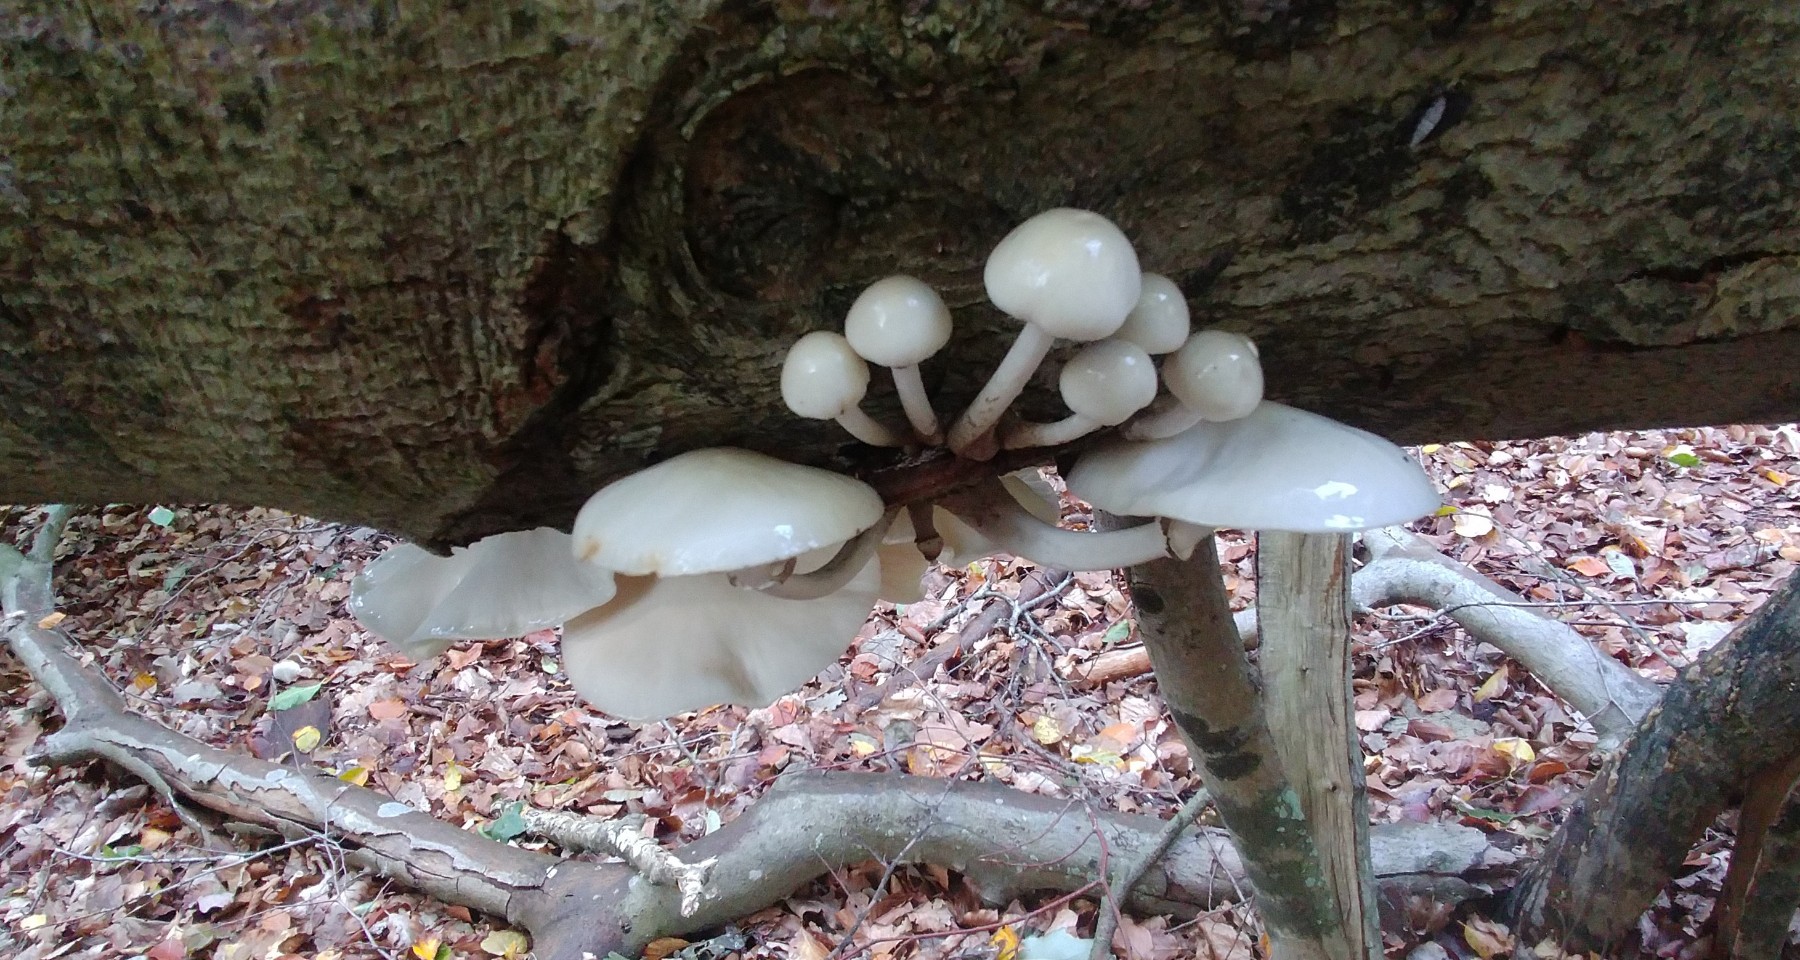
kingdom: Fungi
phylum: Basidiomycota
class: Agaricomycetes
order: Agaricales
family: Physalacriaceae
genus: Mucidula
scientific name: Mucidula mucida
